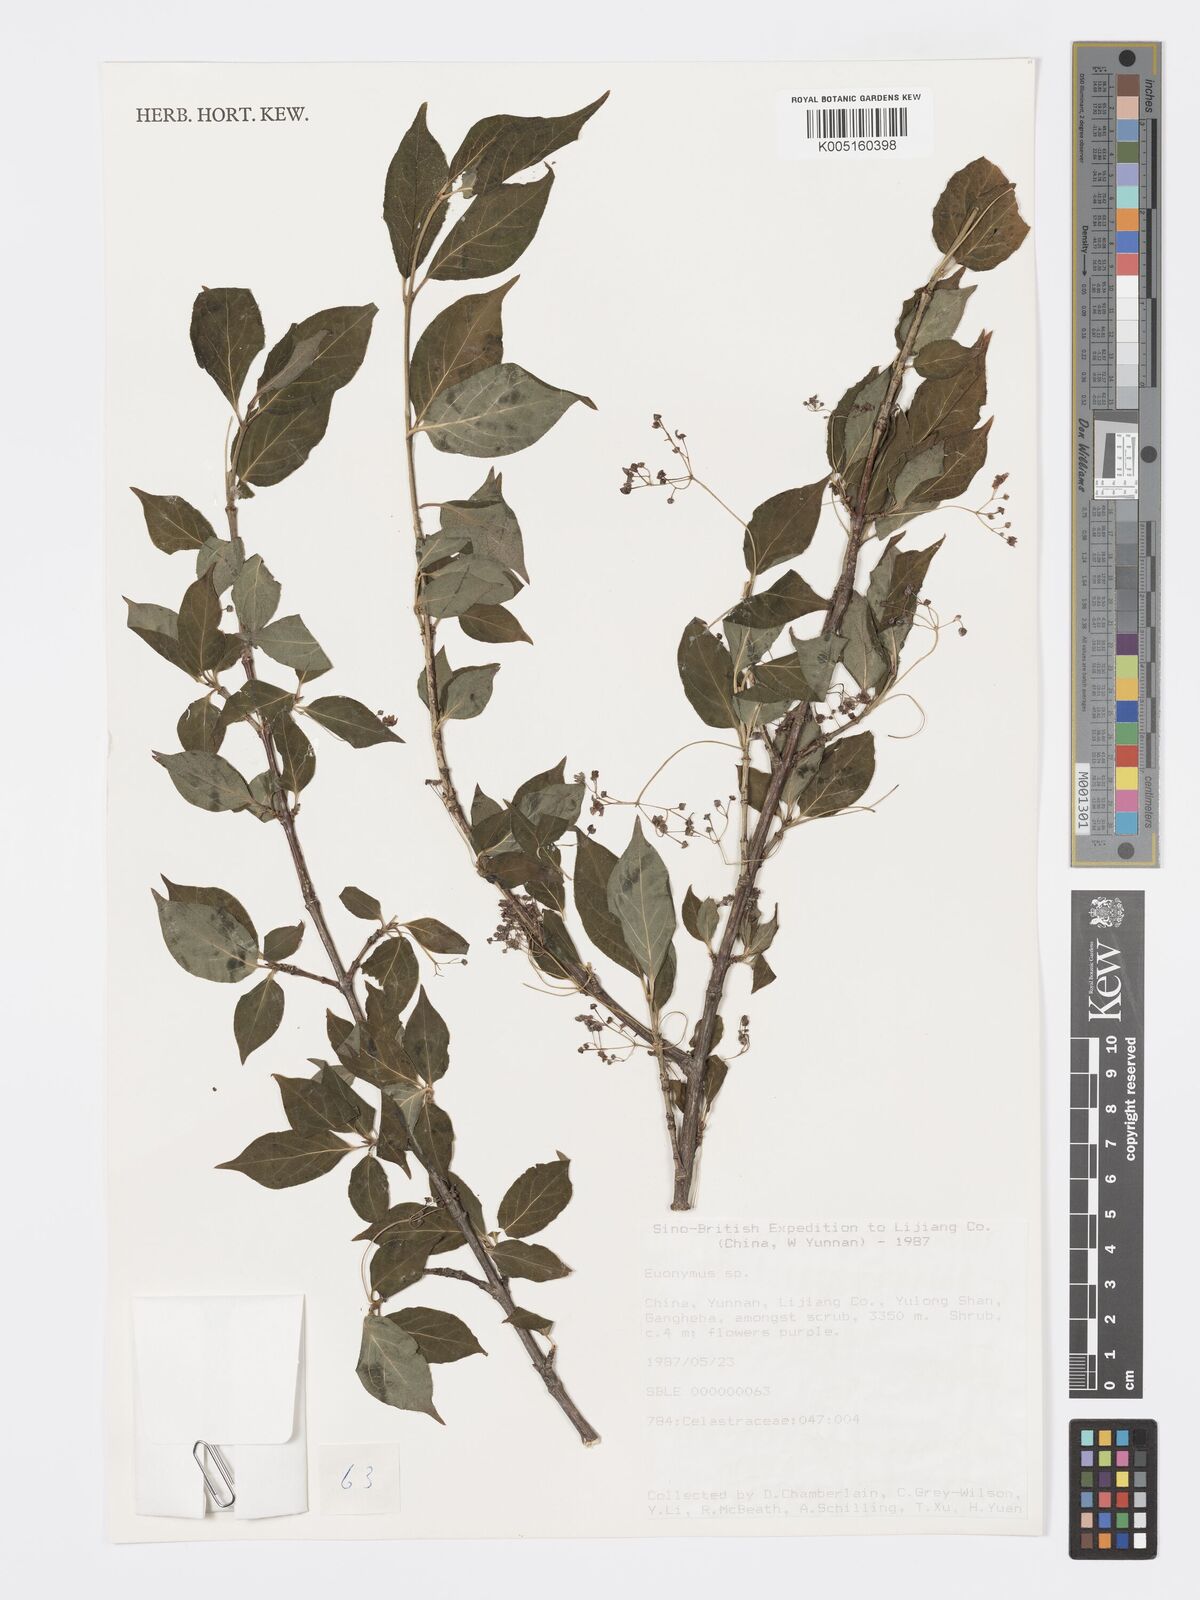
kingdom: Plantae
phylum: Tracheophyta
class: Magnoliopsida
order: Celastrales
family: Celastraceae
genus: Euonymus
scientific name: Euonymus
